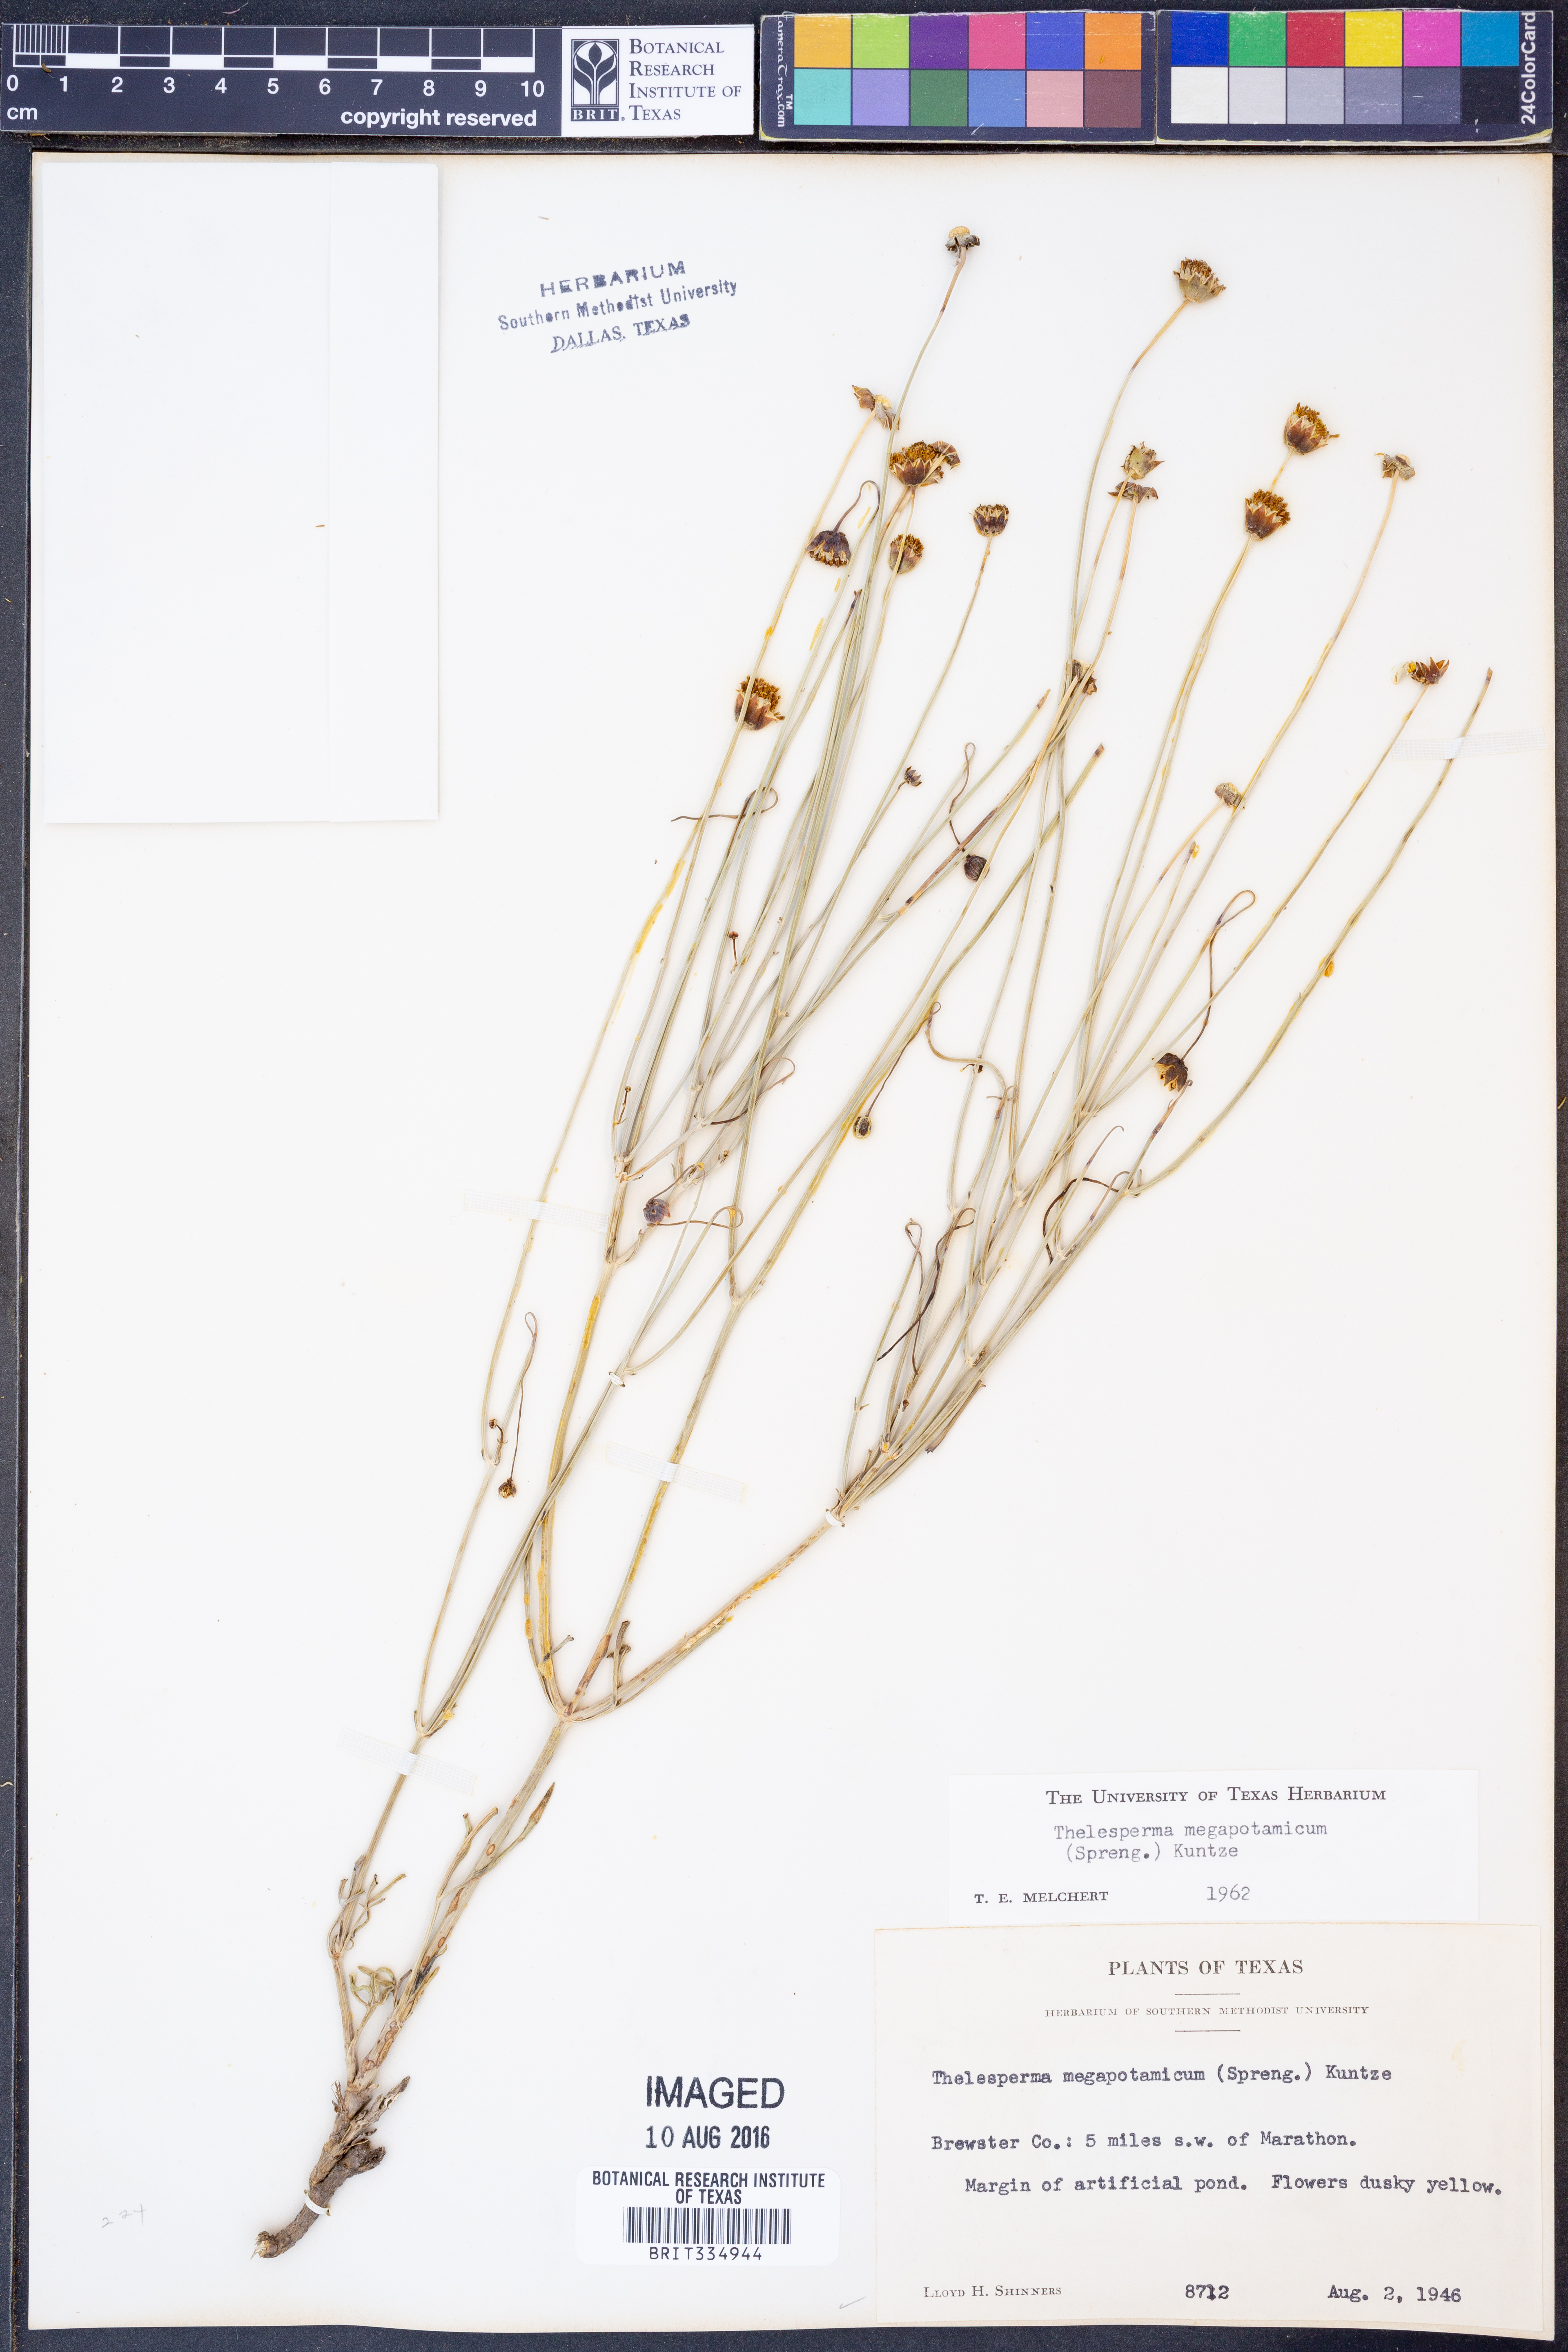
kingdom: Plantae
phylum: Tracheophyta
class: Magnoliopsida
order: Asterales
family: Asteraceae
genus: Thelesperma
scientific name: Thelesperma megapotamicum
